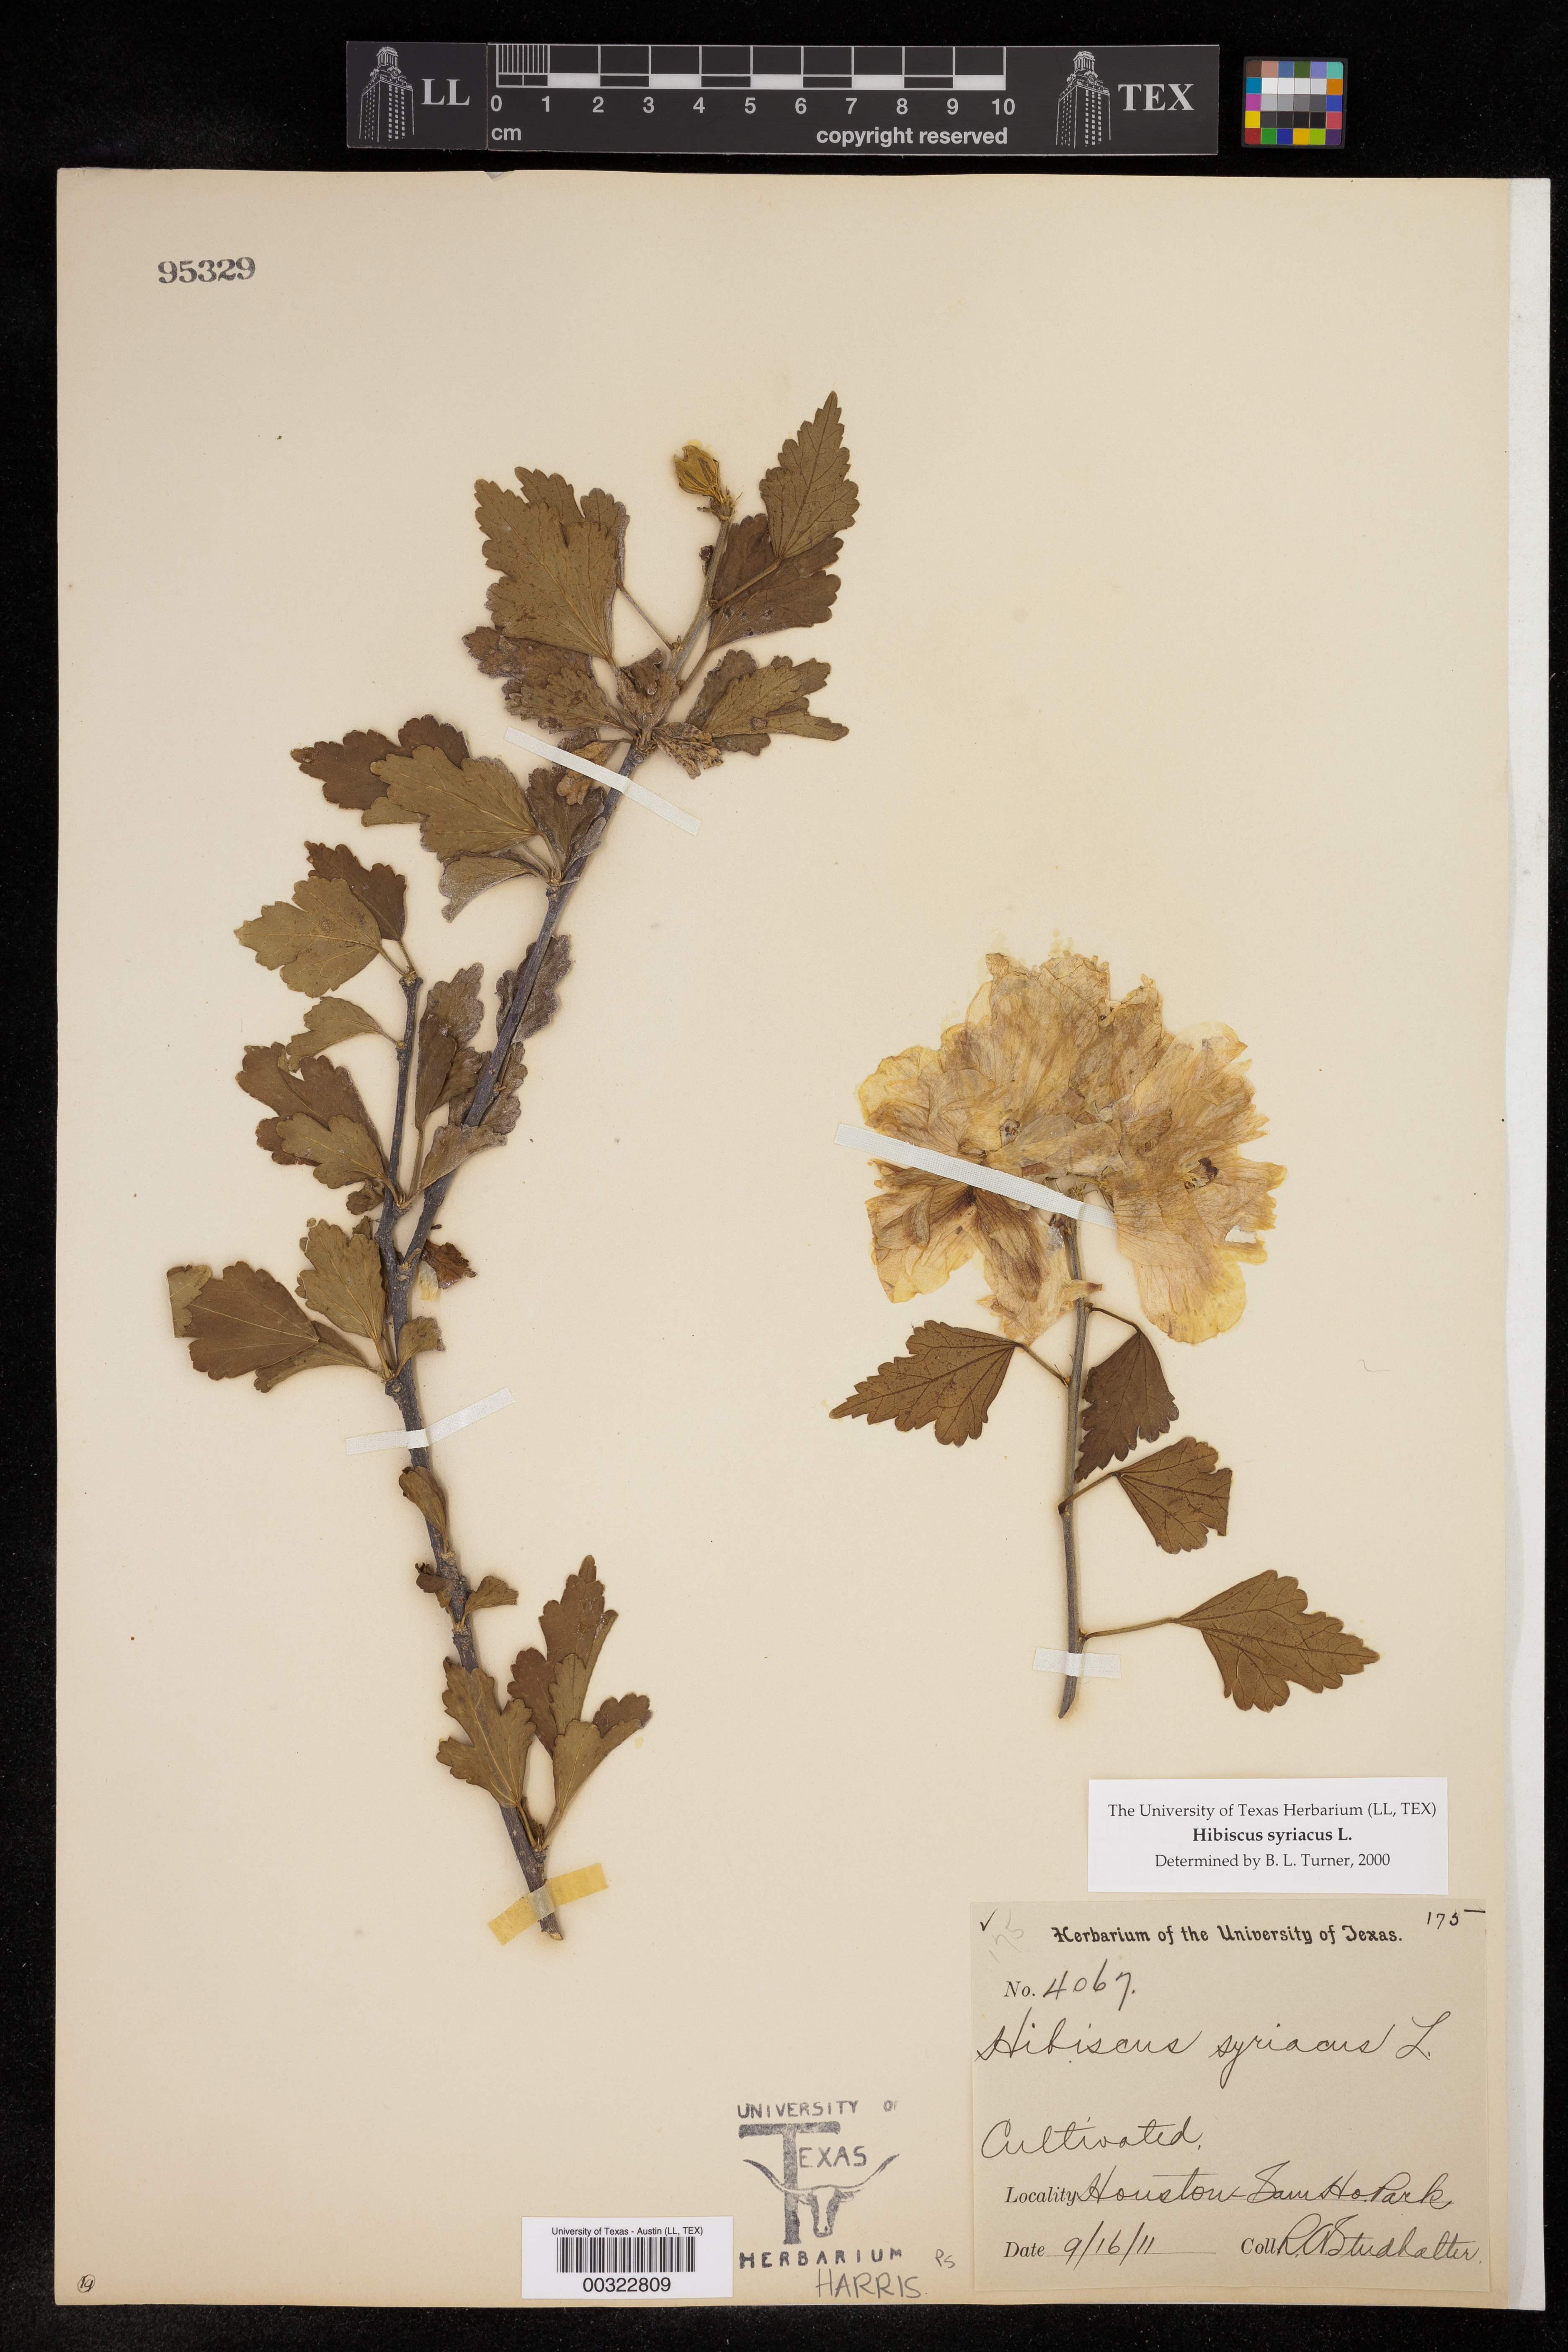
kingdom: Plantae
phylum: Tracheophyta
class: Magnoliopsida
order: Malvales
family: Malvaceae
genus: Hibiscus
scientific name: Hibiscus syriacus
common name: Syrian ketmia
